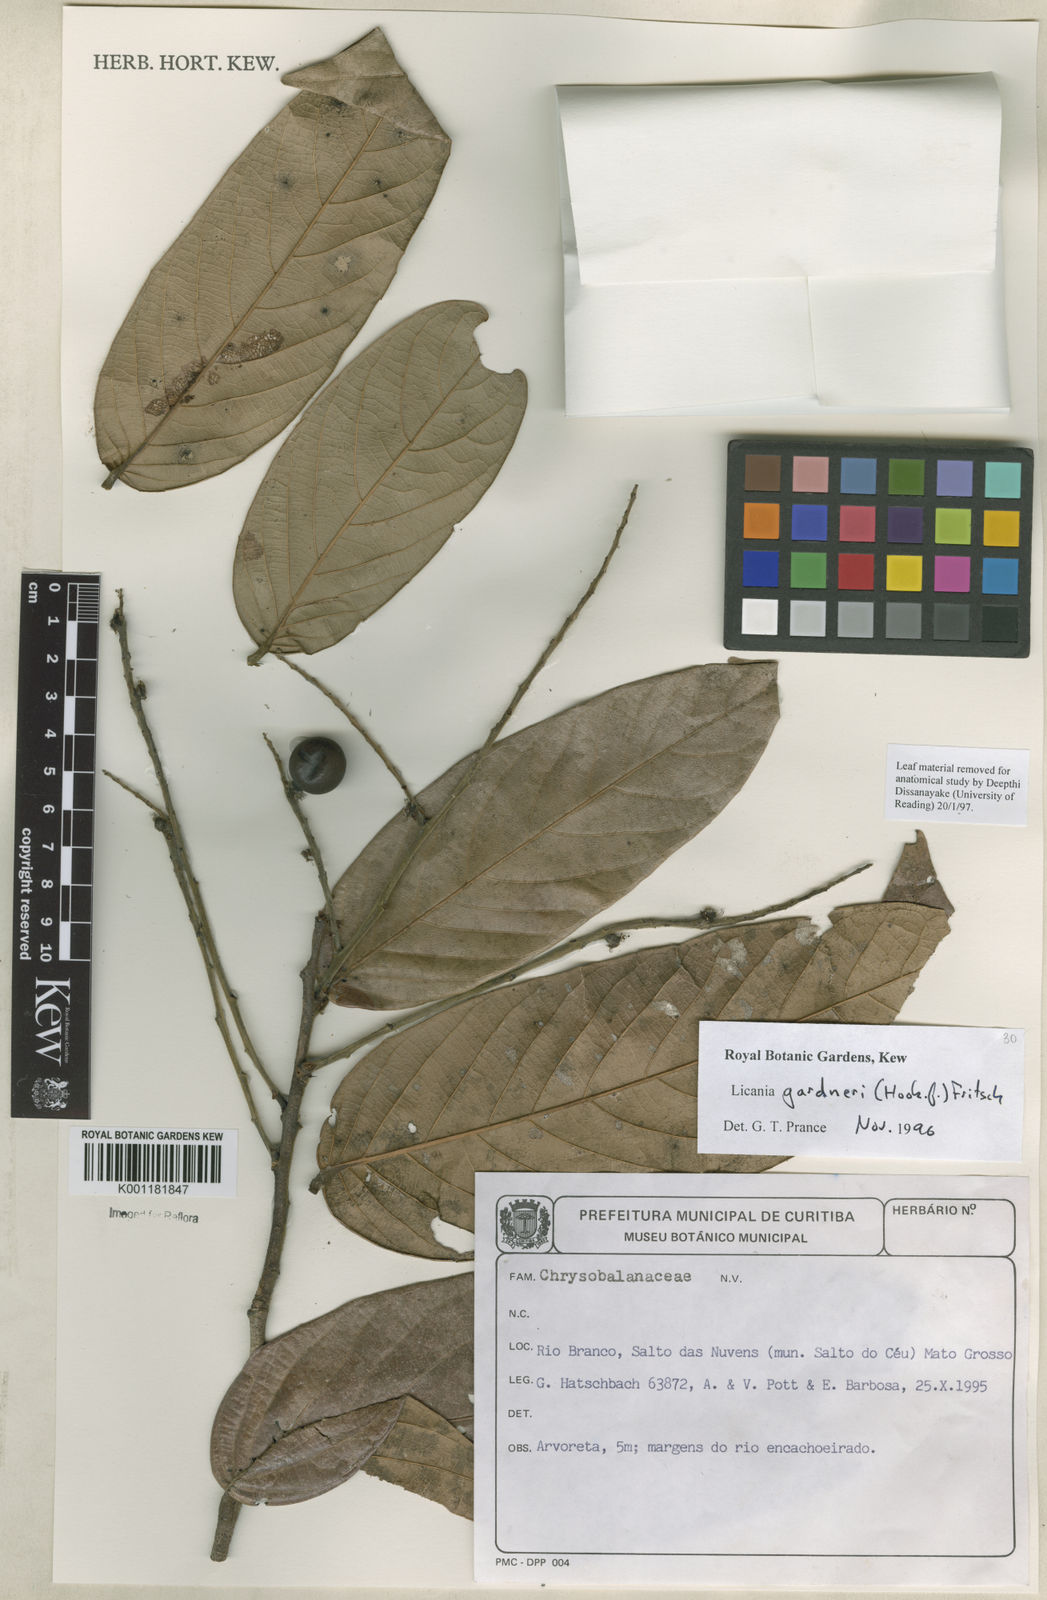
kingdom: Plantae
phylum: Tracheophyta
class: Magnoliopsida
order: Malpighiales
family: Chrysobalanaceae
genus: Leptobalanus
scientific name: Leptobalanus gardneri
